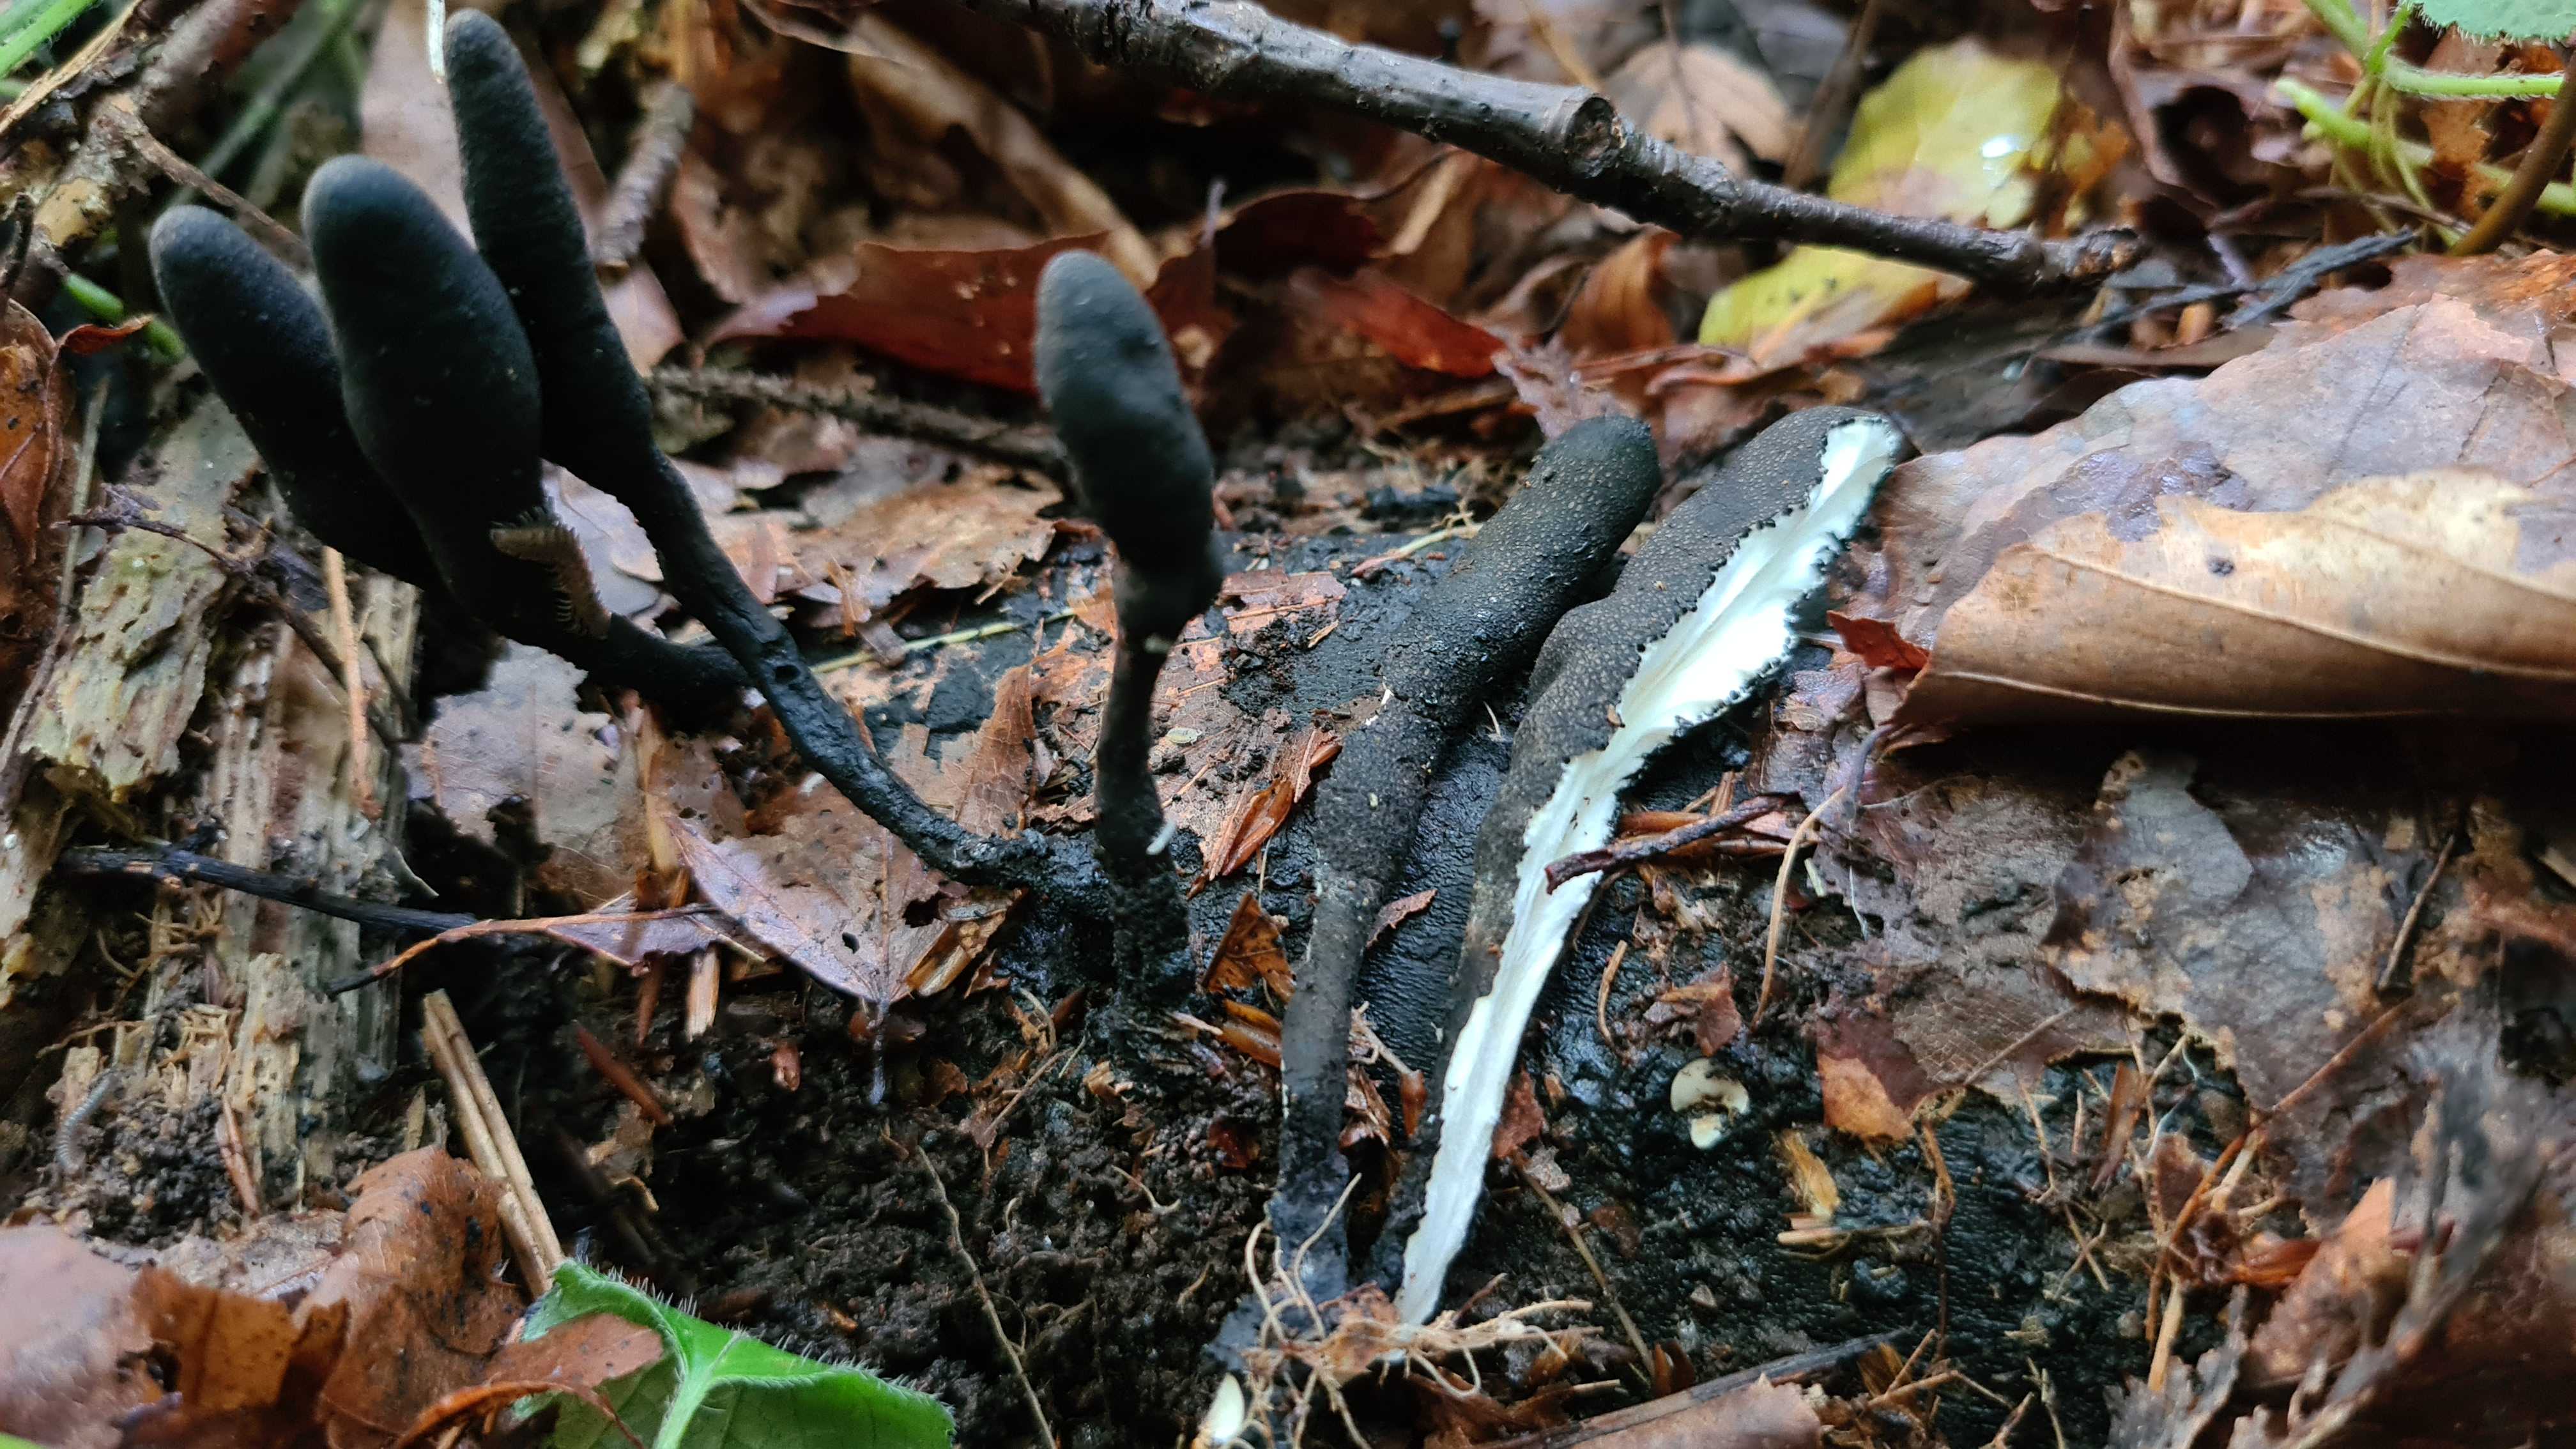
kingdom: Fungi
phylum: Ascomycota
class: Sordariomycetes
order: Xylariales
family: Xylariaceae
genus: Xylaria
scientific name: Xylaria longipes
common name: slank stødsvamp
